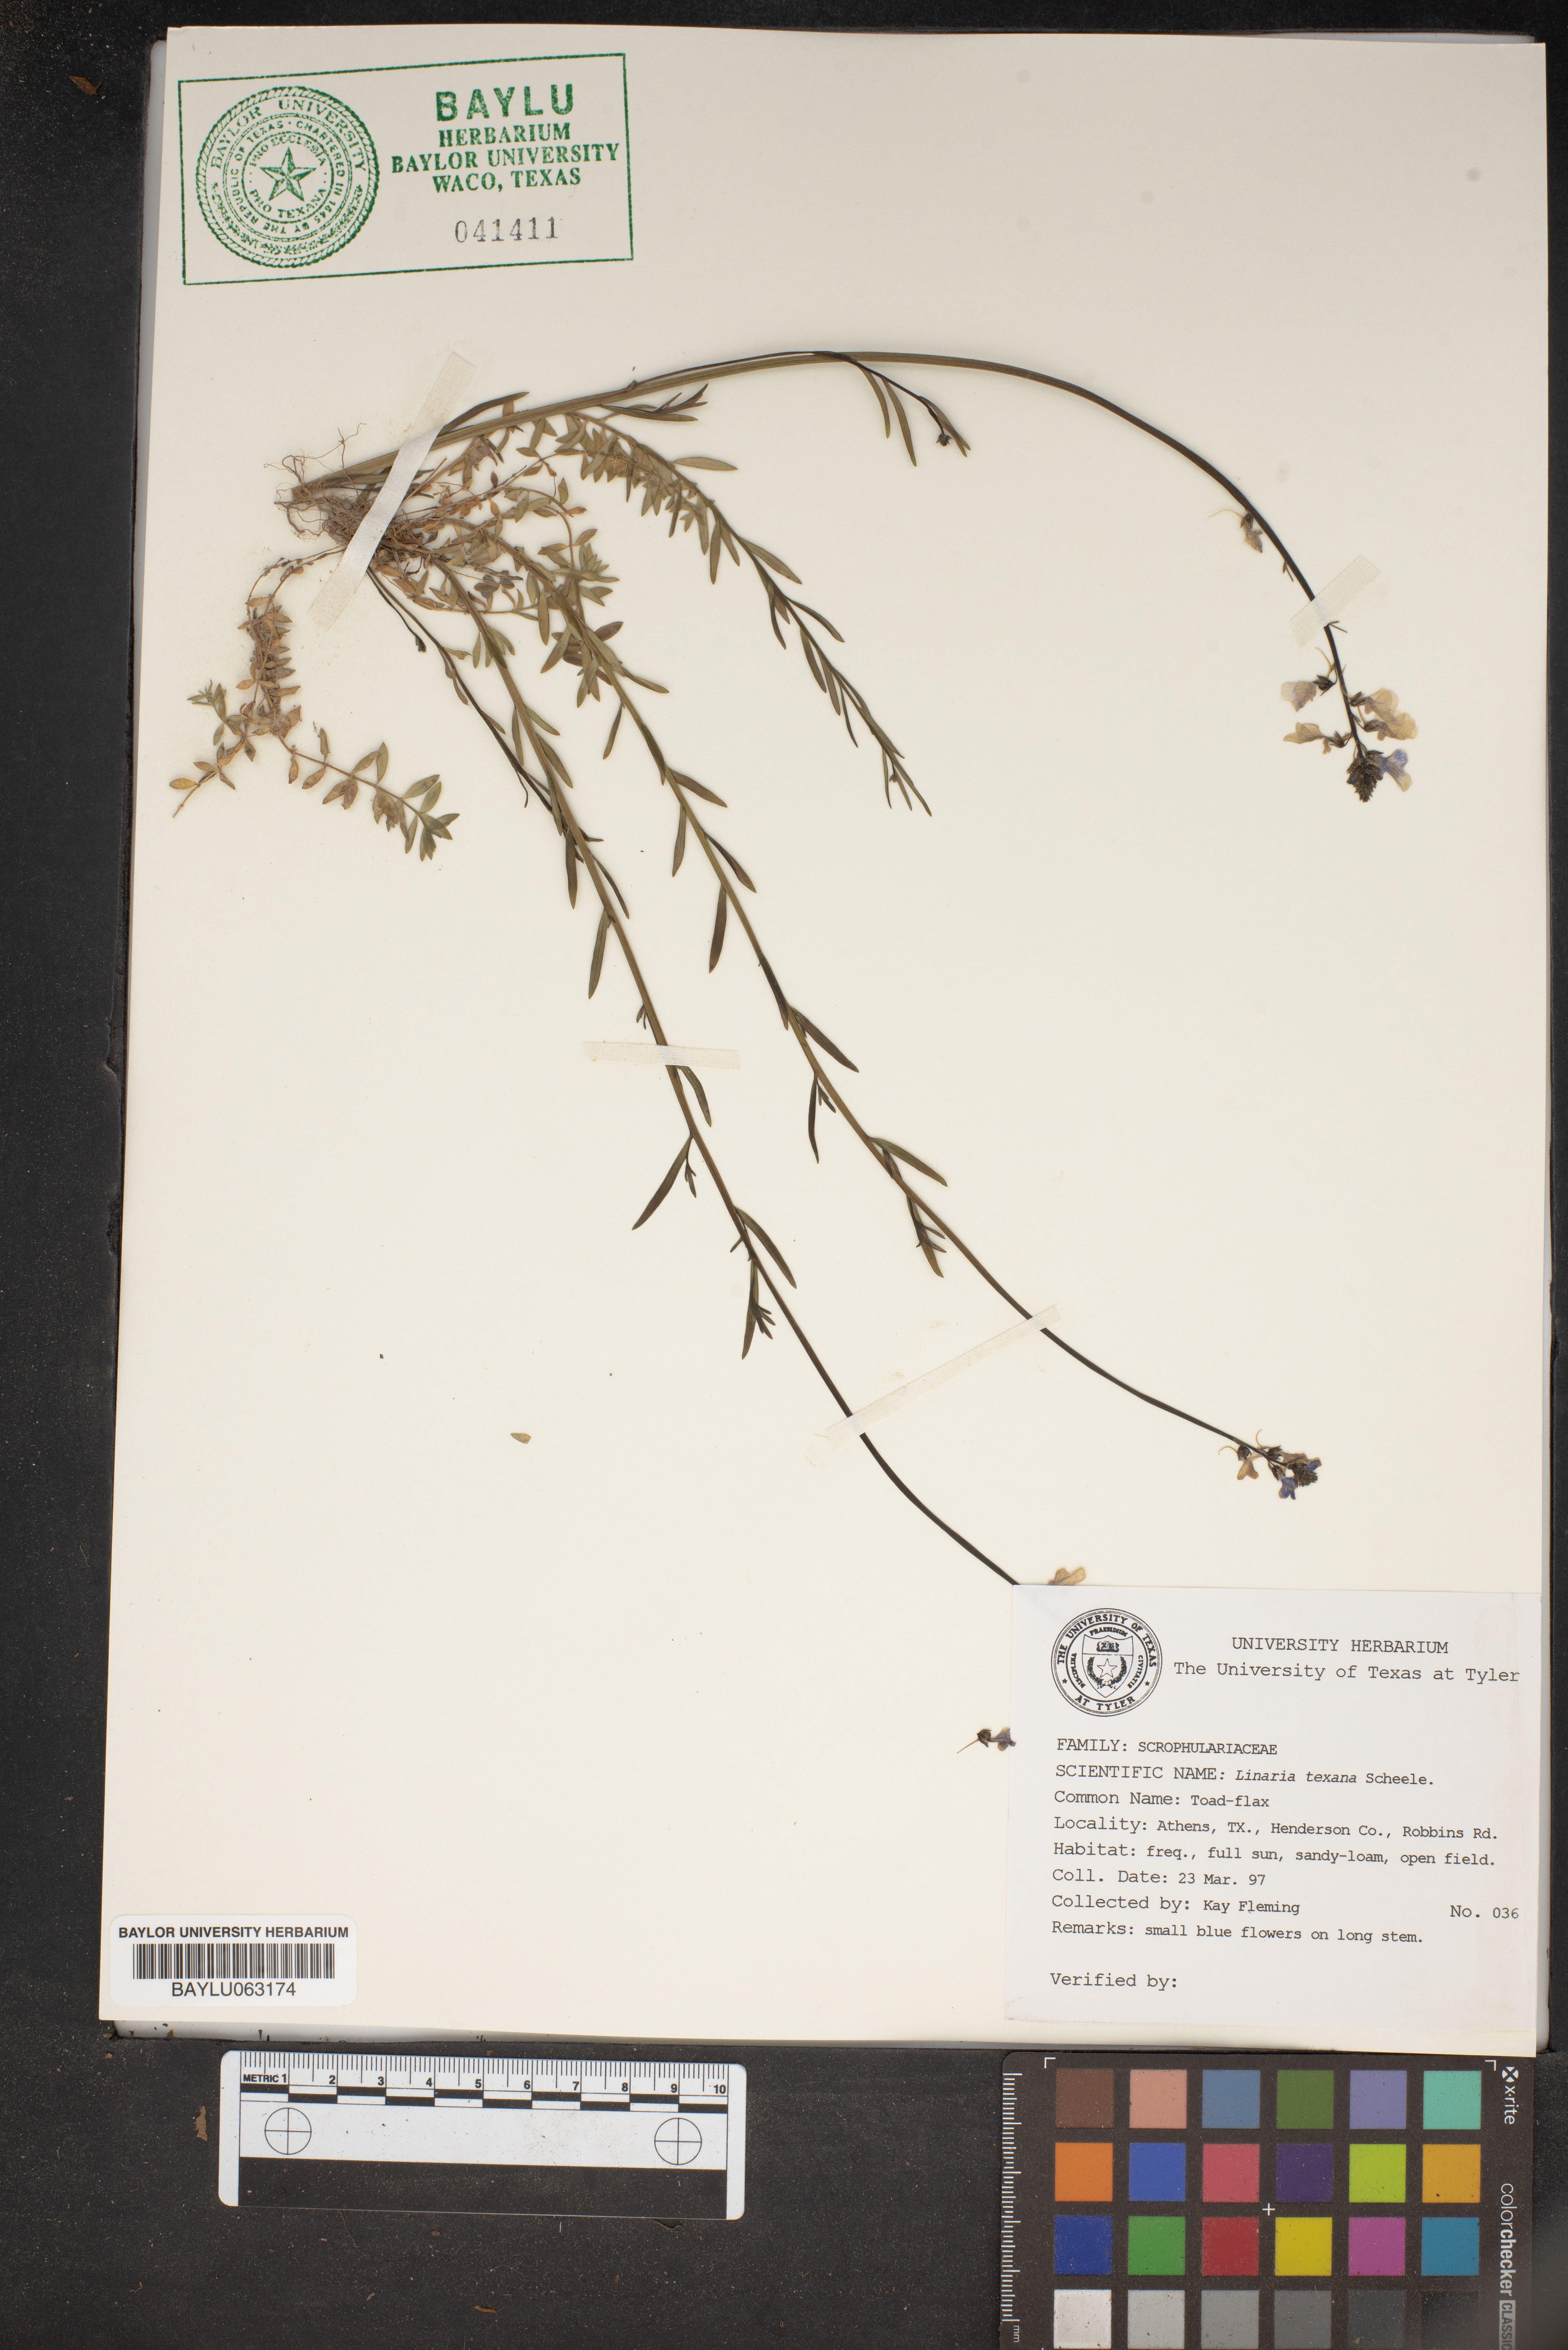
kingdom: Plantae
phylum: Tracheophyta
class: Magnoliopsida
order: Lamiales
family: Plantaginaceae
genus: Nuttallanthus
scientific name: Nuttallanthus texanus
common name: Texas toadflax
